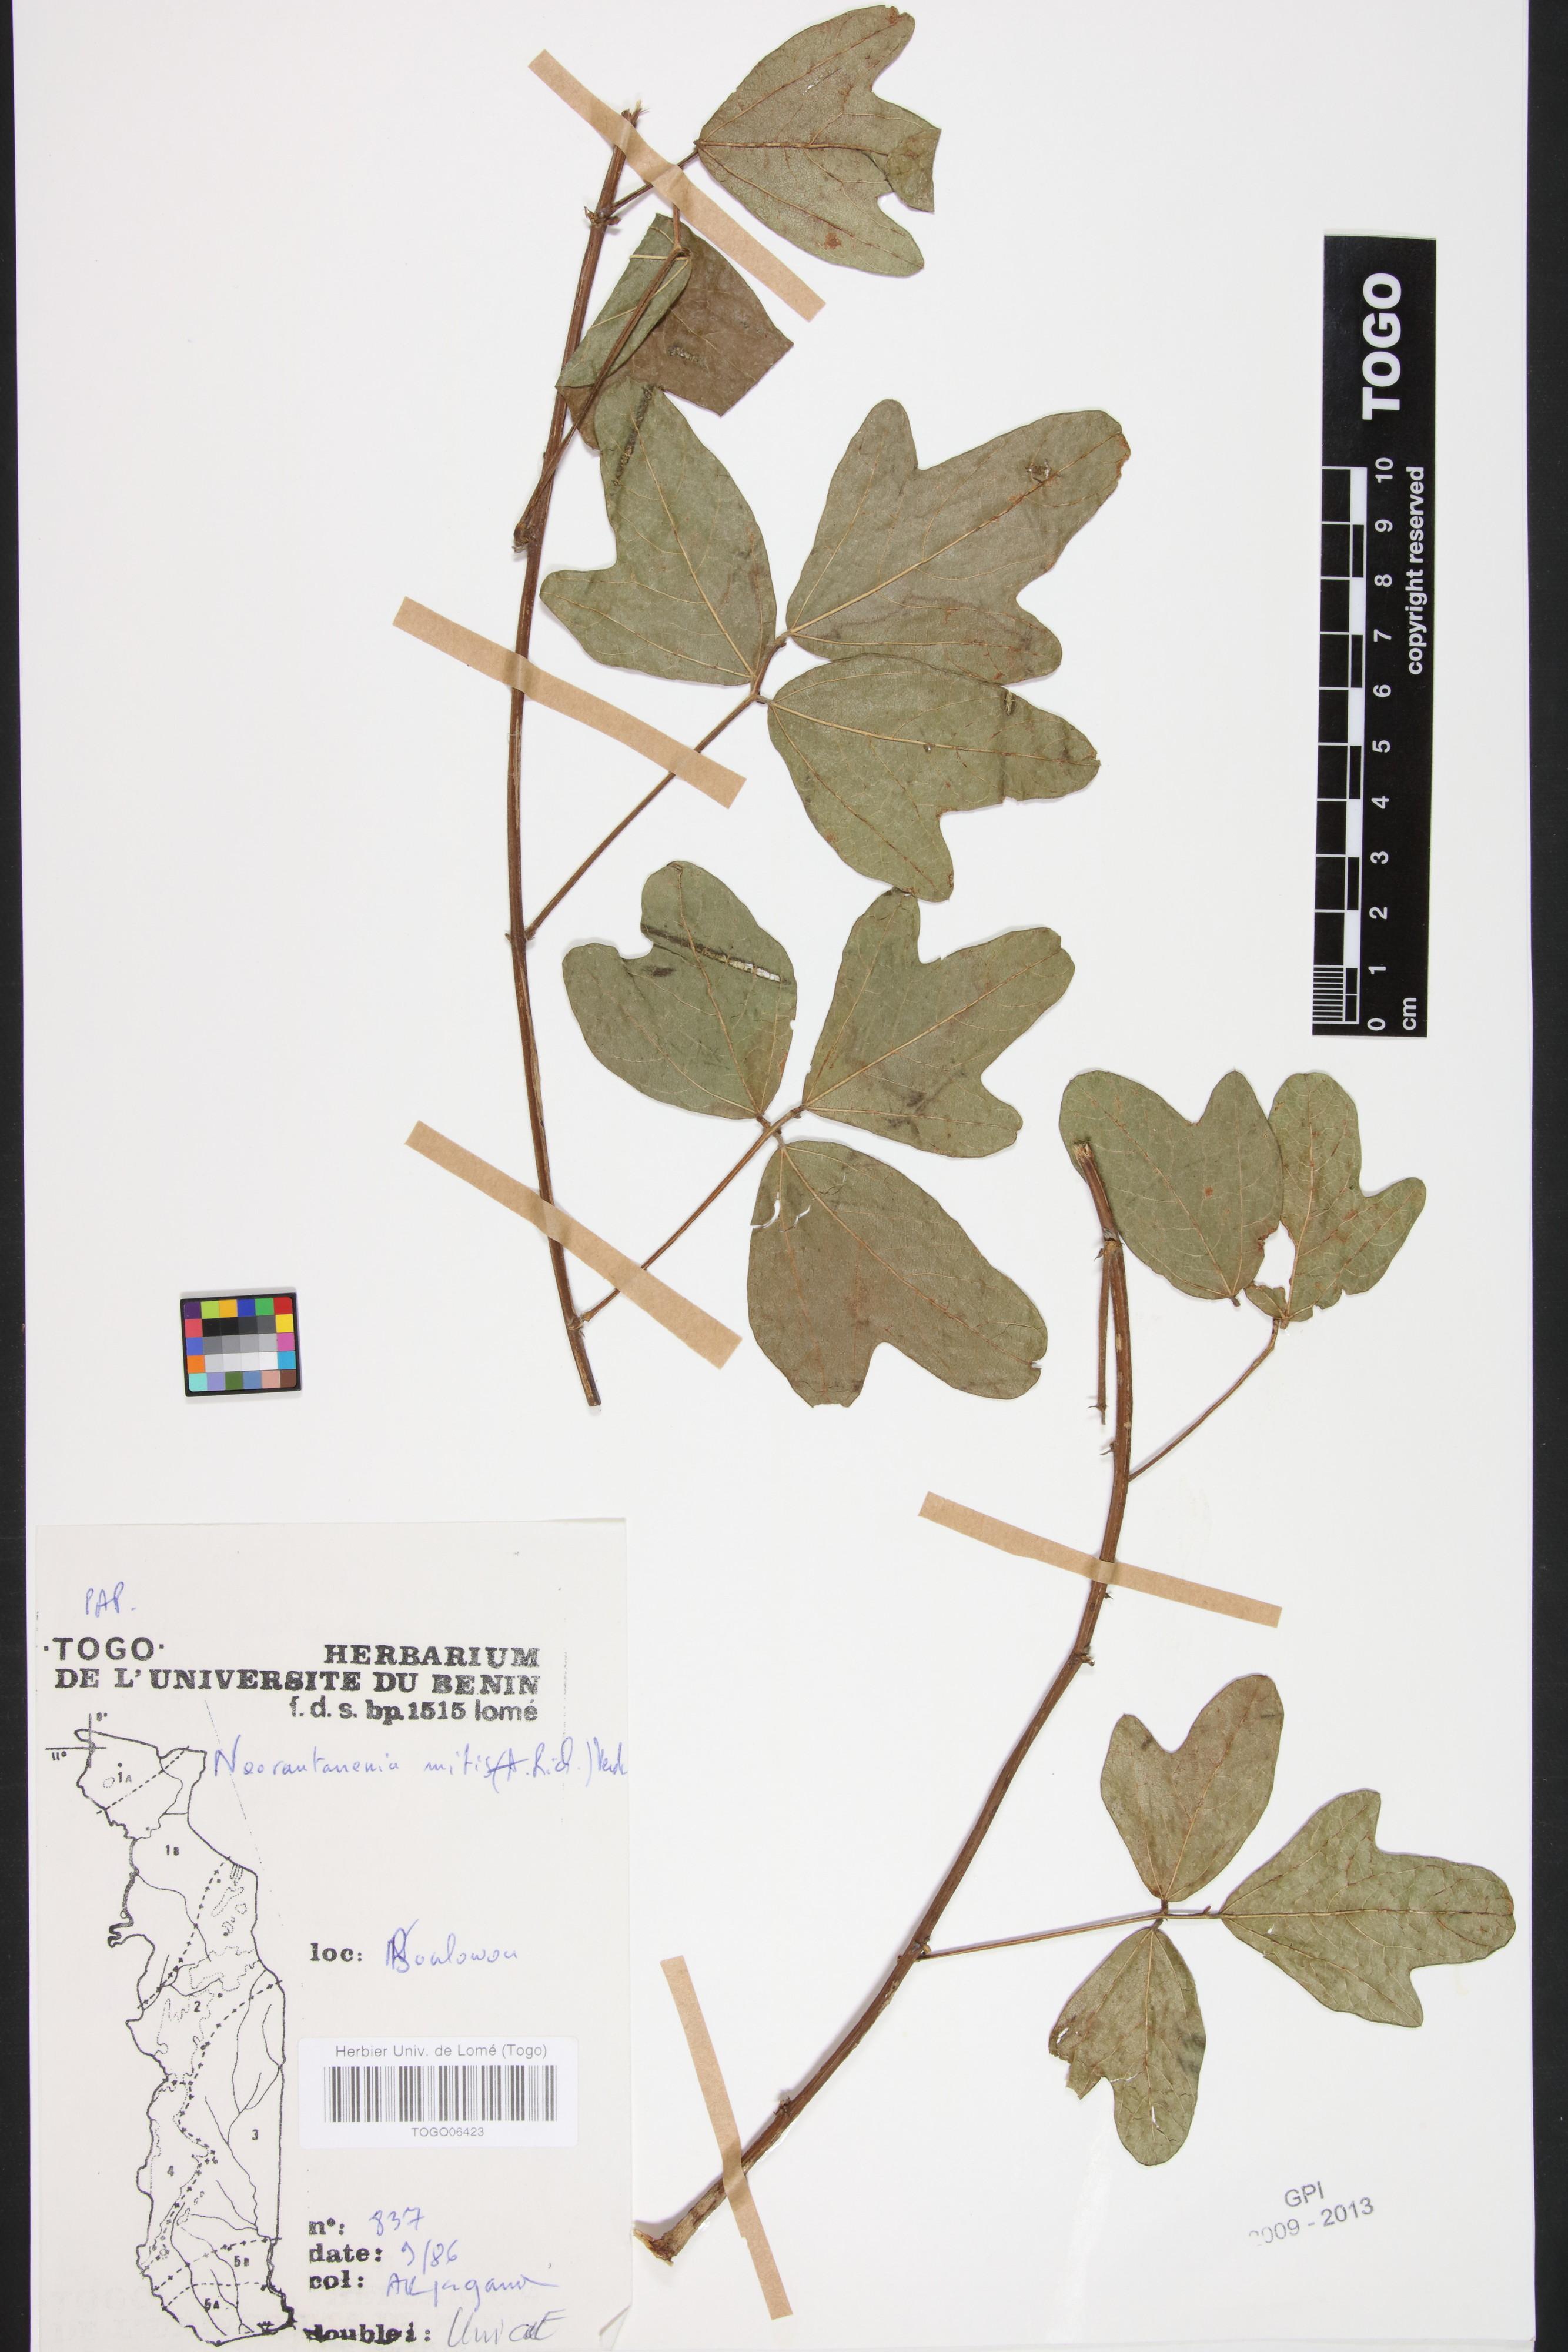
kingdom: Plantae
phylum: Tracheophyta
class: Magnoliopsida
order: Fabales
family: Fabaceae
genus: Neorautanenia
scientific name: Neorautanenia mitis
